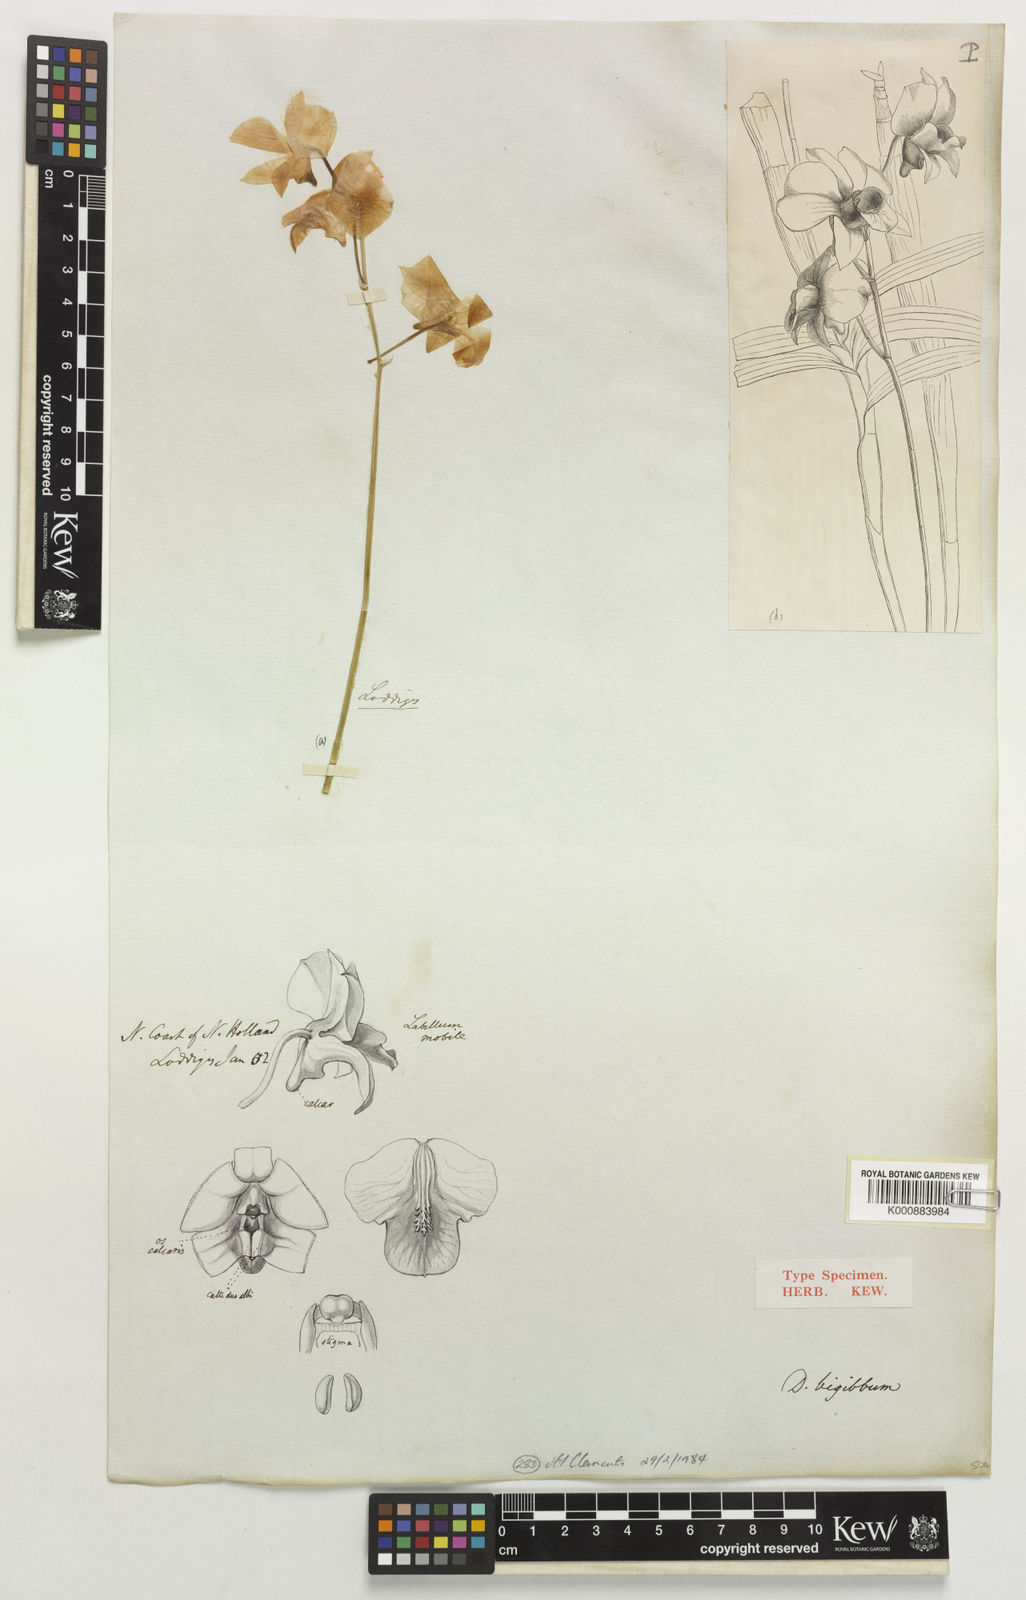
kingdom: Plantae
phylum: Tracheophyta
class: Liliopsida
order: Asparagales
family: Orchidaceae
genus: Dendrobium
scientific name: Dendrobium bigibbum
